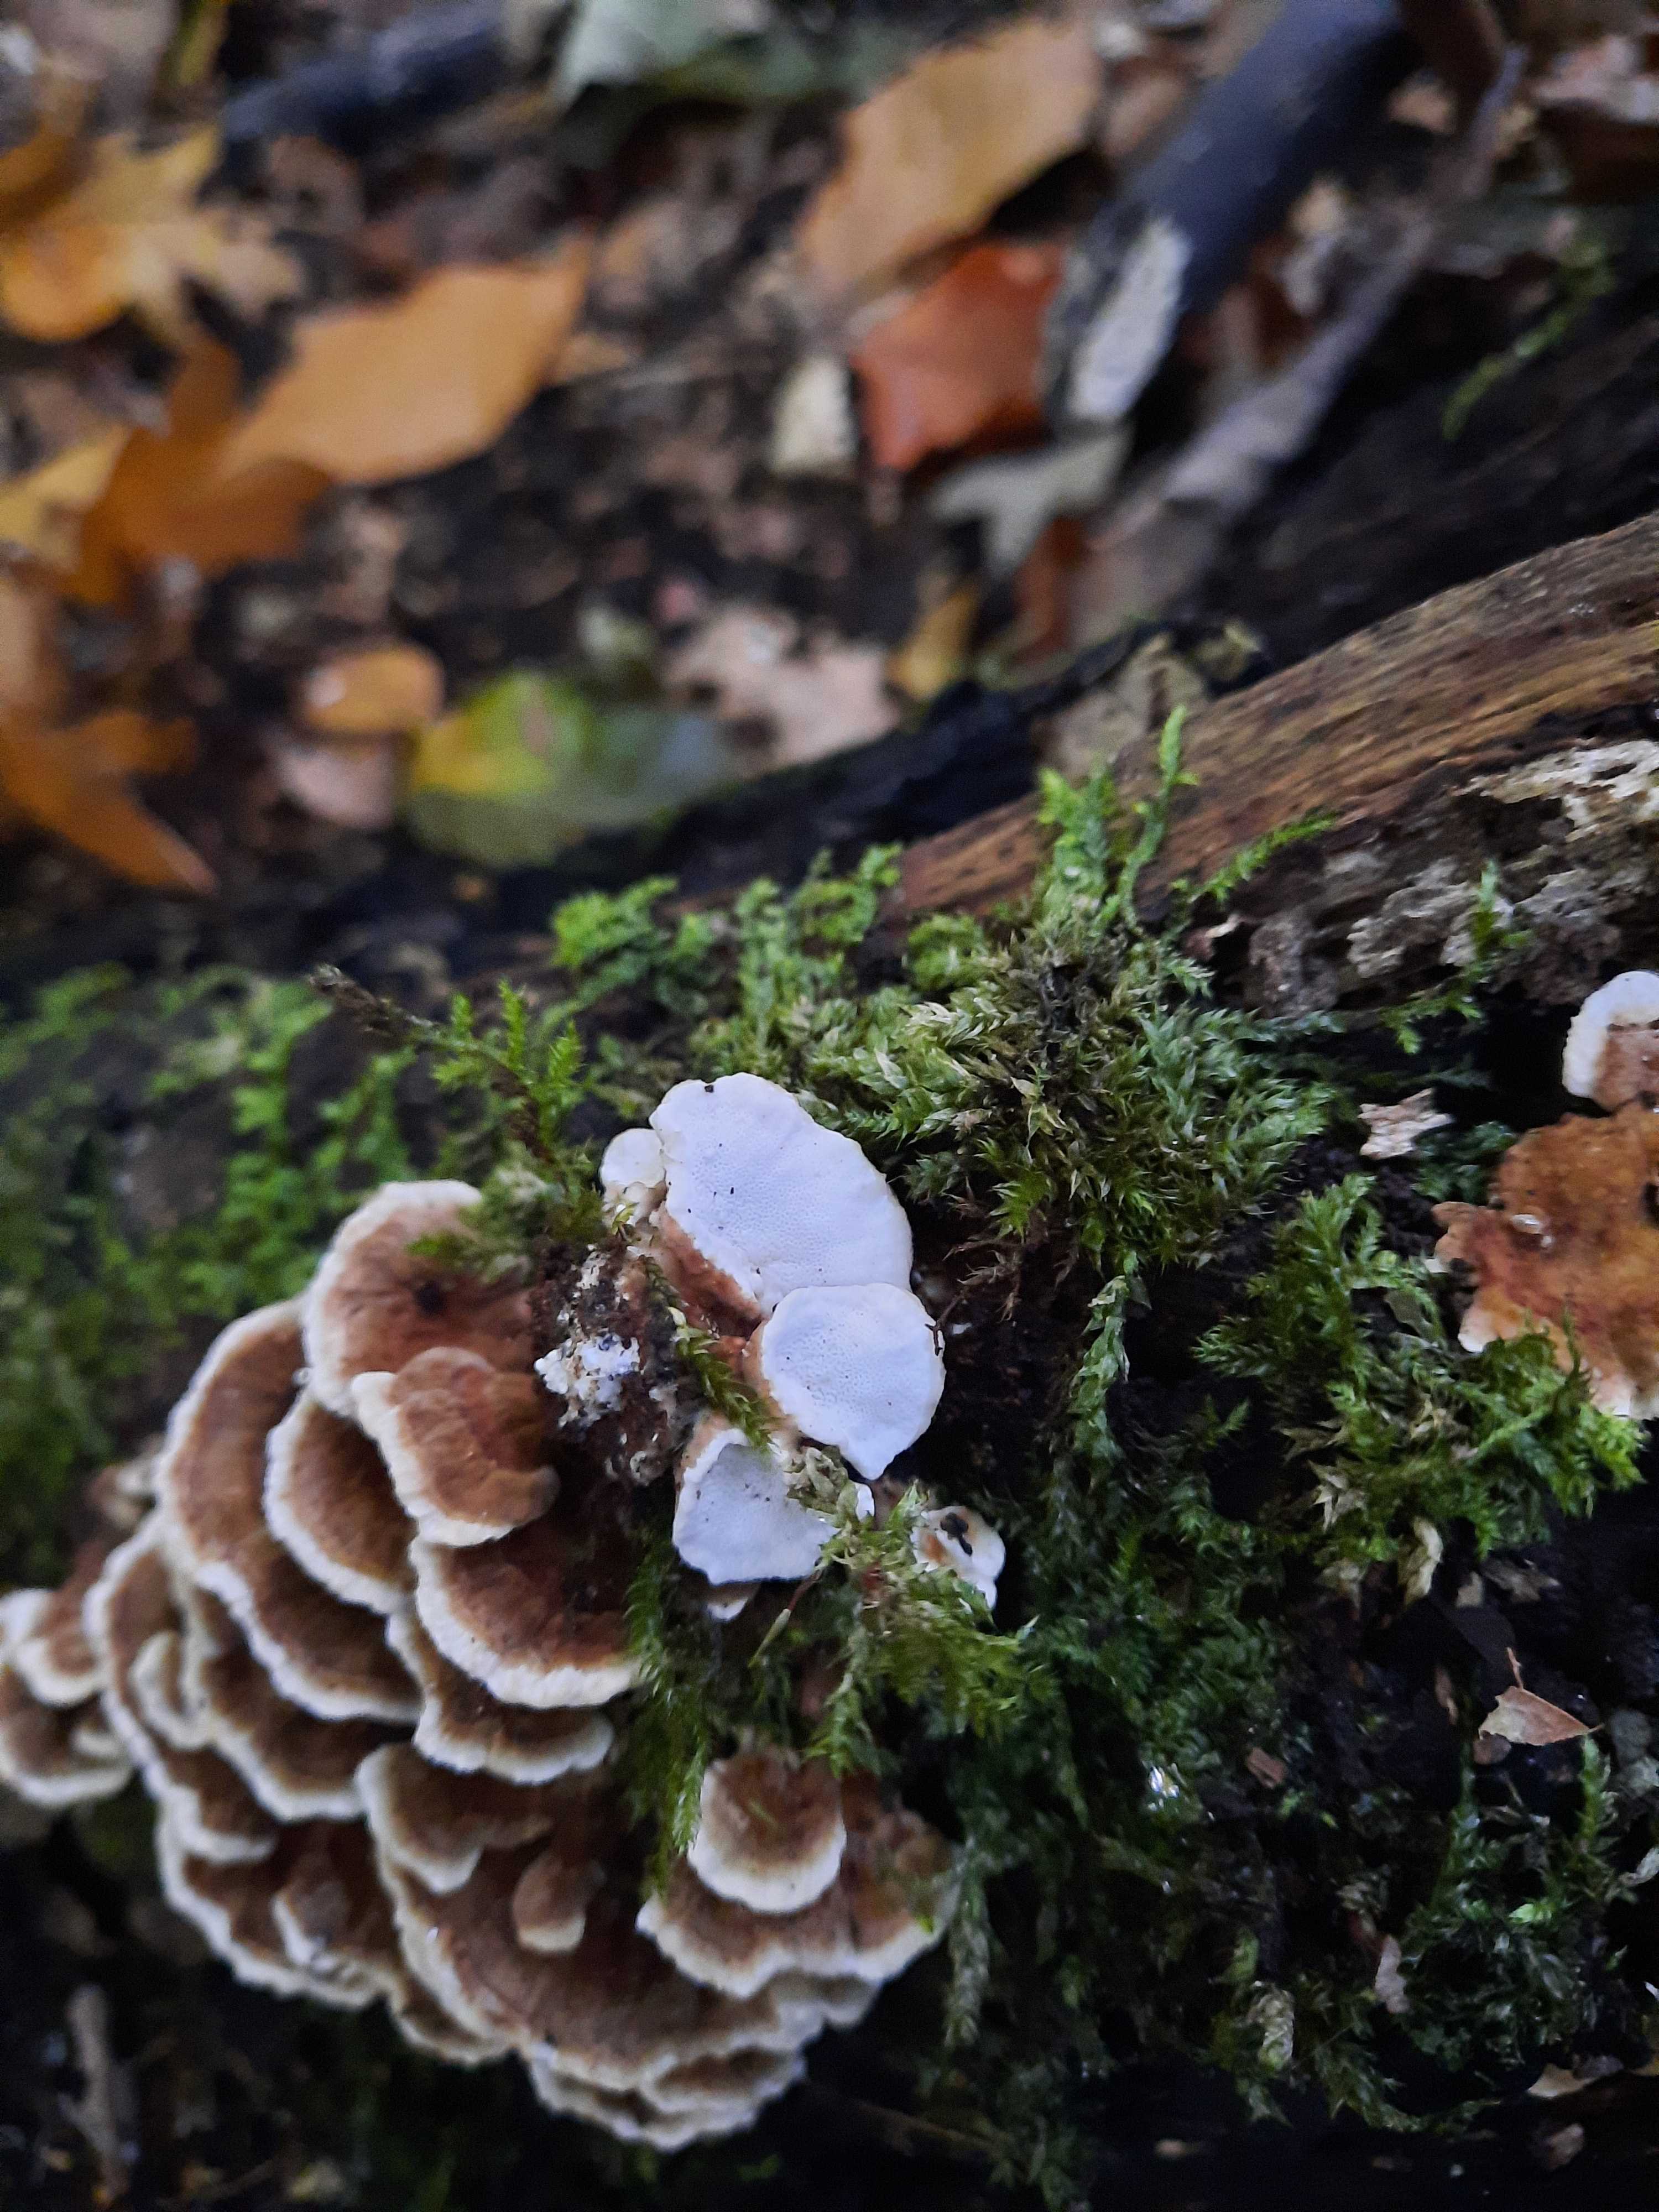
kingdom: Fungi
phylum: Basidiomycota
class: Agaricomycetes
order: Polyporales
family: Polyporaceae
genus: Trametes
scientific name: Trametes versicolor
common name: broget læderporesvamp
